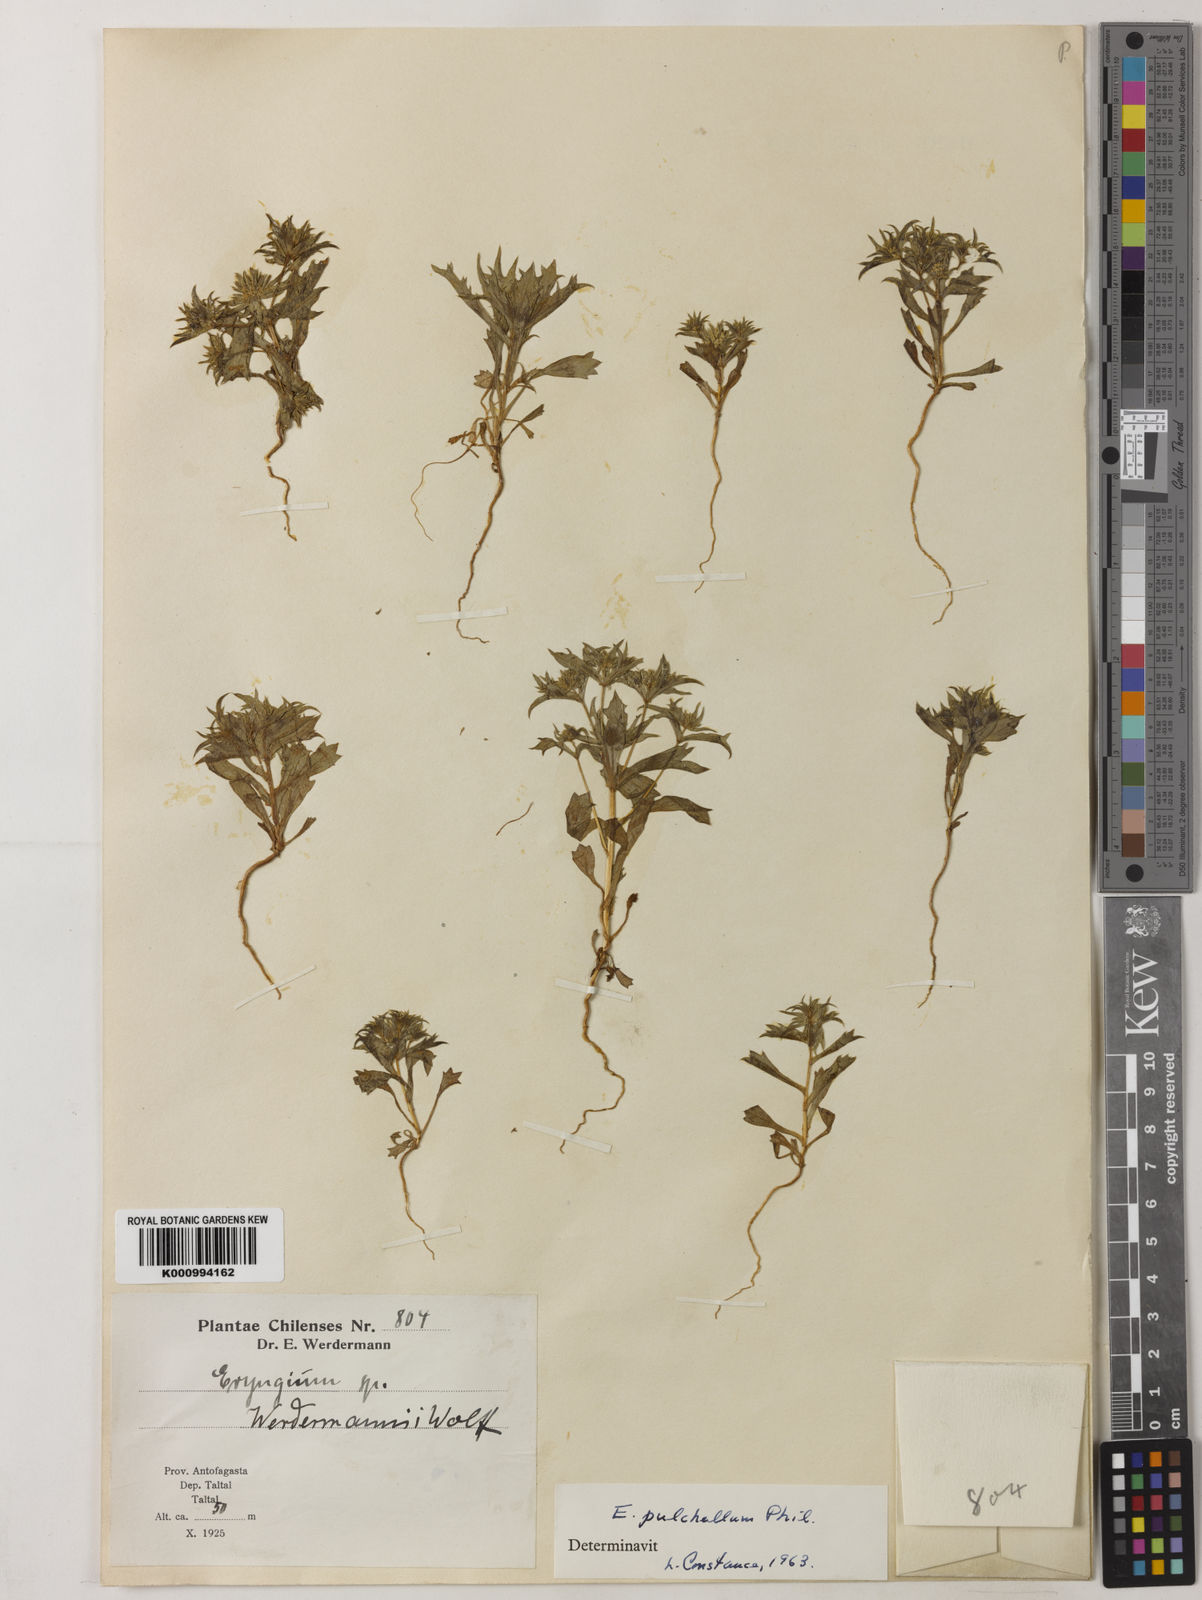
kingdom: Plantae
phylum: Tracheophyta
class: Magnoliopsida
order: Apiales
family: Apiaceae
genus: Eryngium
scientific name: Eryngium pulchellum
